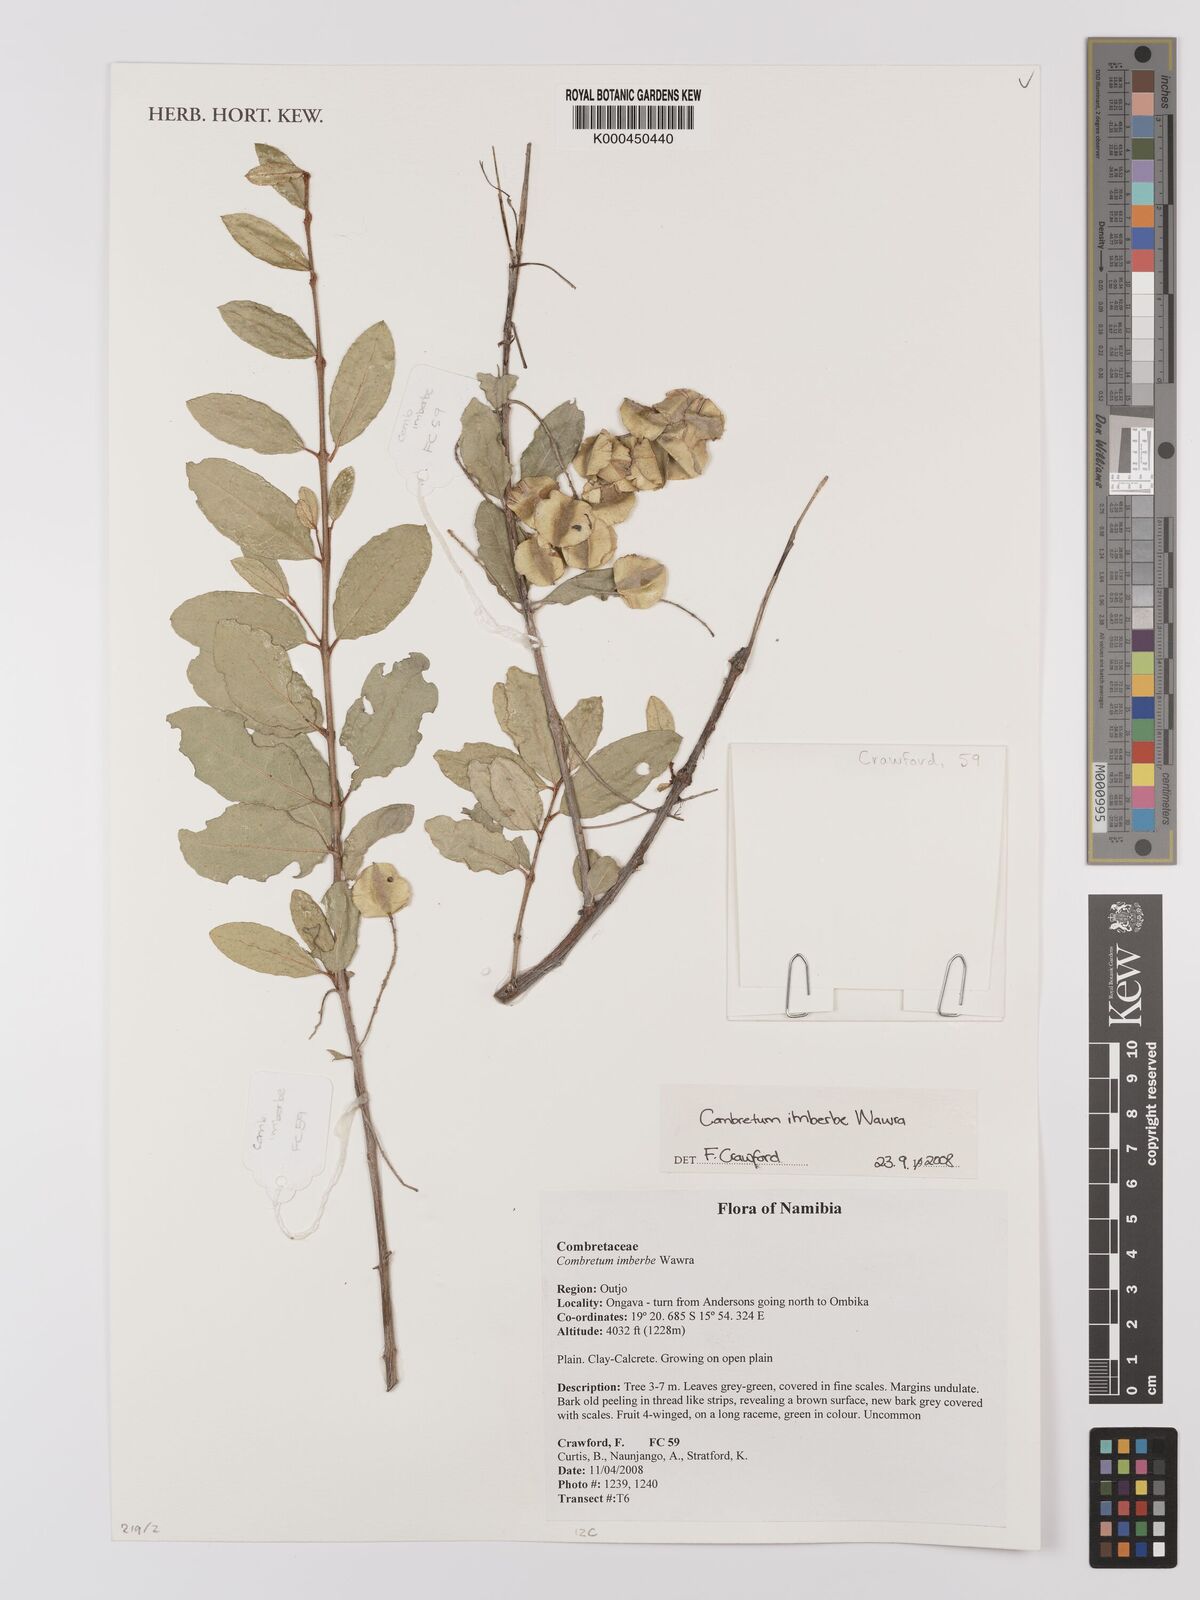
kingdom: Plantae
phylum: Tracheophyta
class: Magnoliopsida
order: Myrtales
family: Combretaceae
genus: Combretum
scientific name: Combretum imberbe
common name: Leadwood
